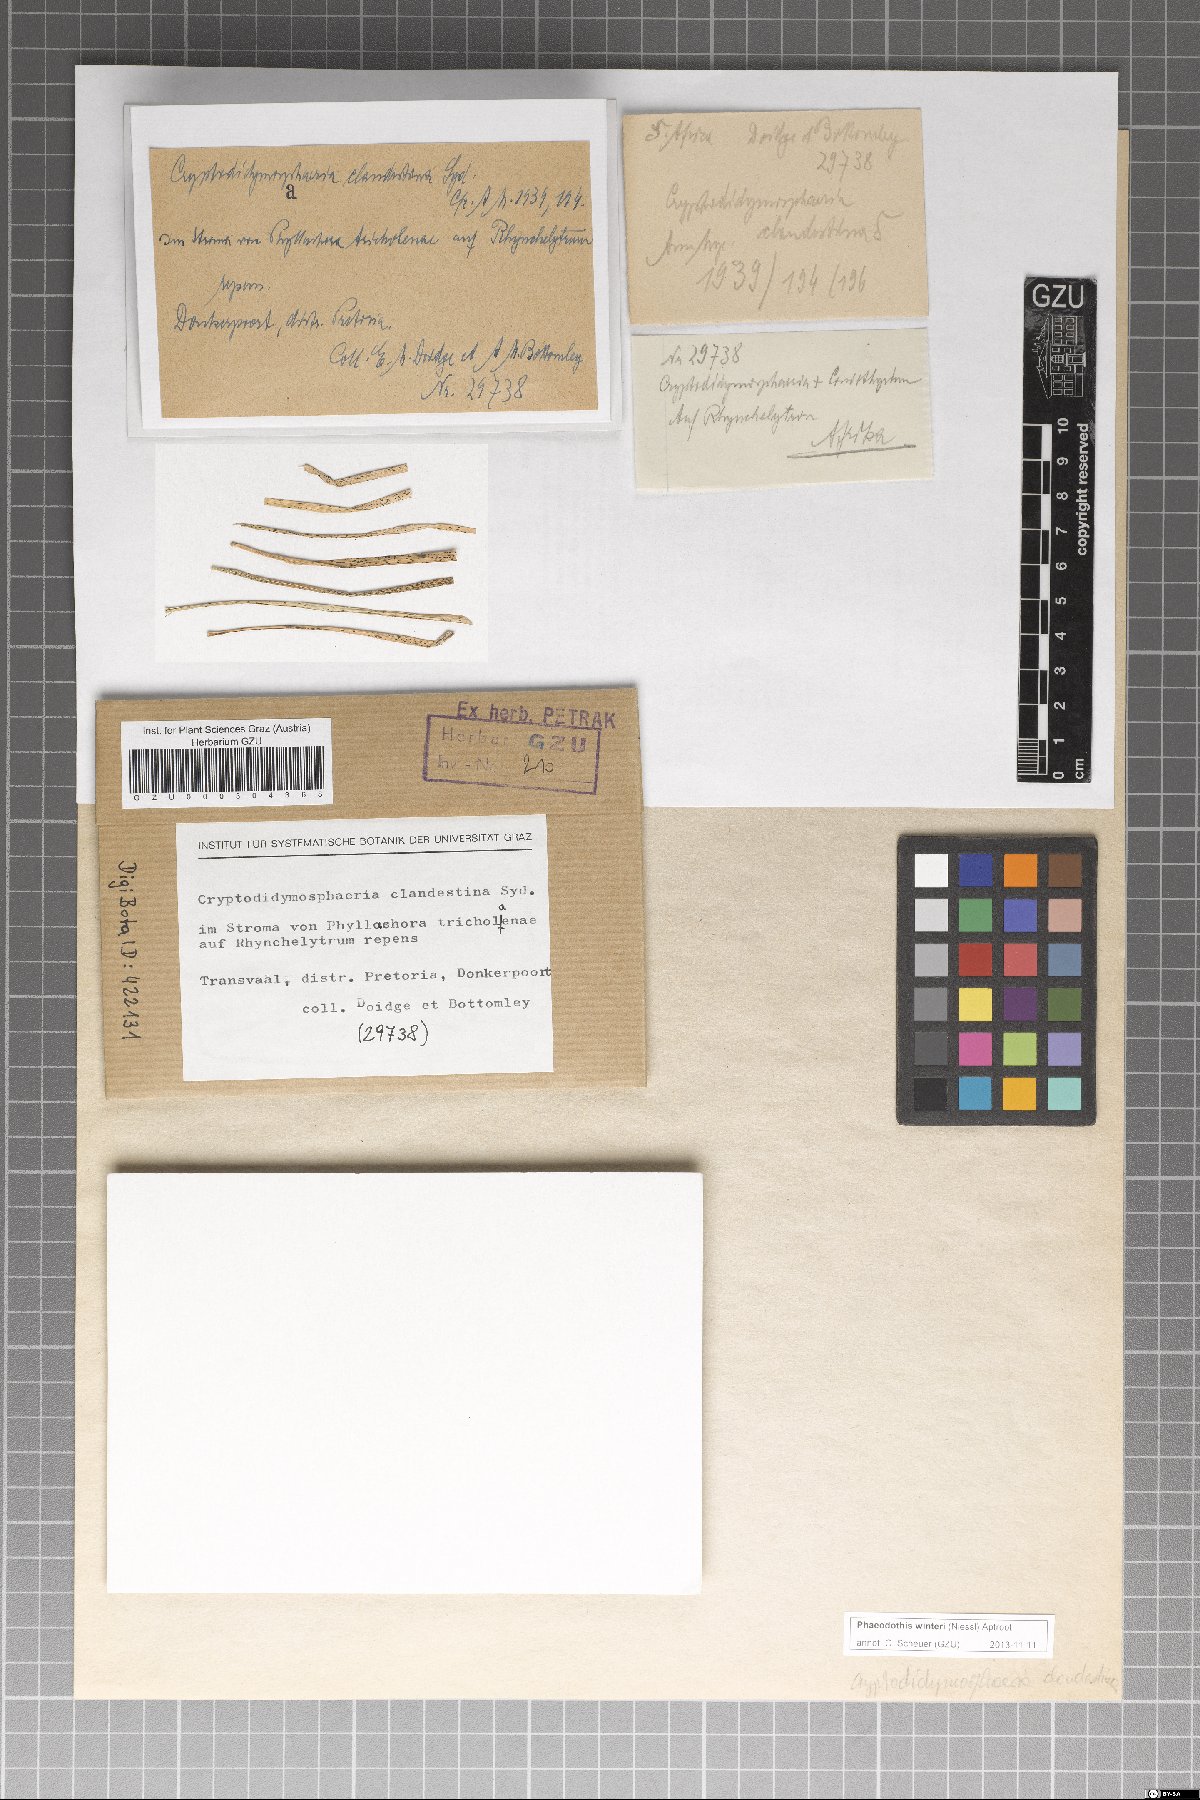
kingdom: Fungi
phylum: Ascomycota
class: Dothideomycetes
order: Pleosporales
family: Didymosphaeriaceae
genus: Phaeodothis
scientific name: Phaeodothis winteri
